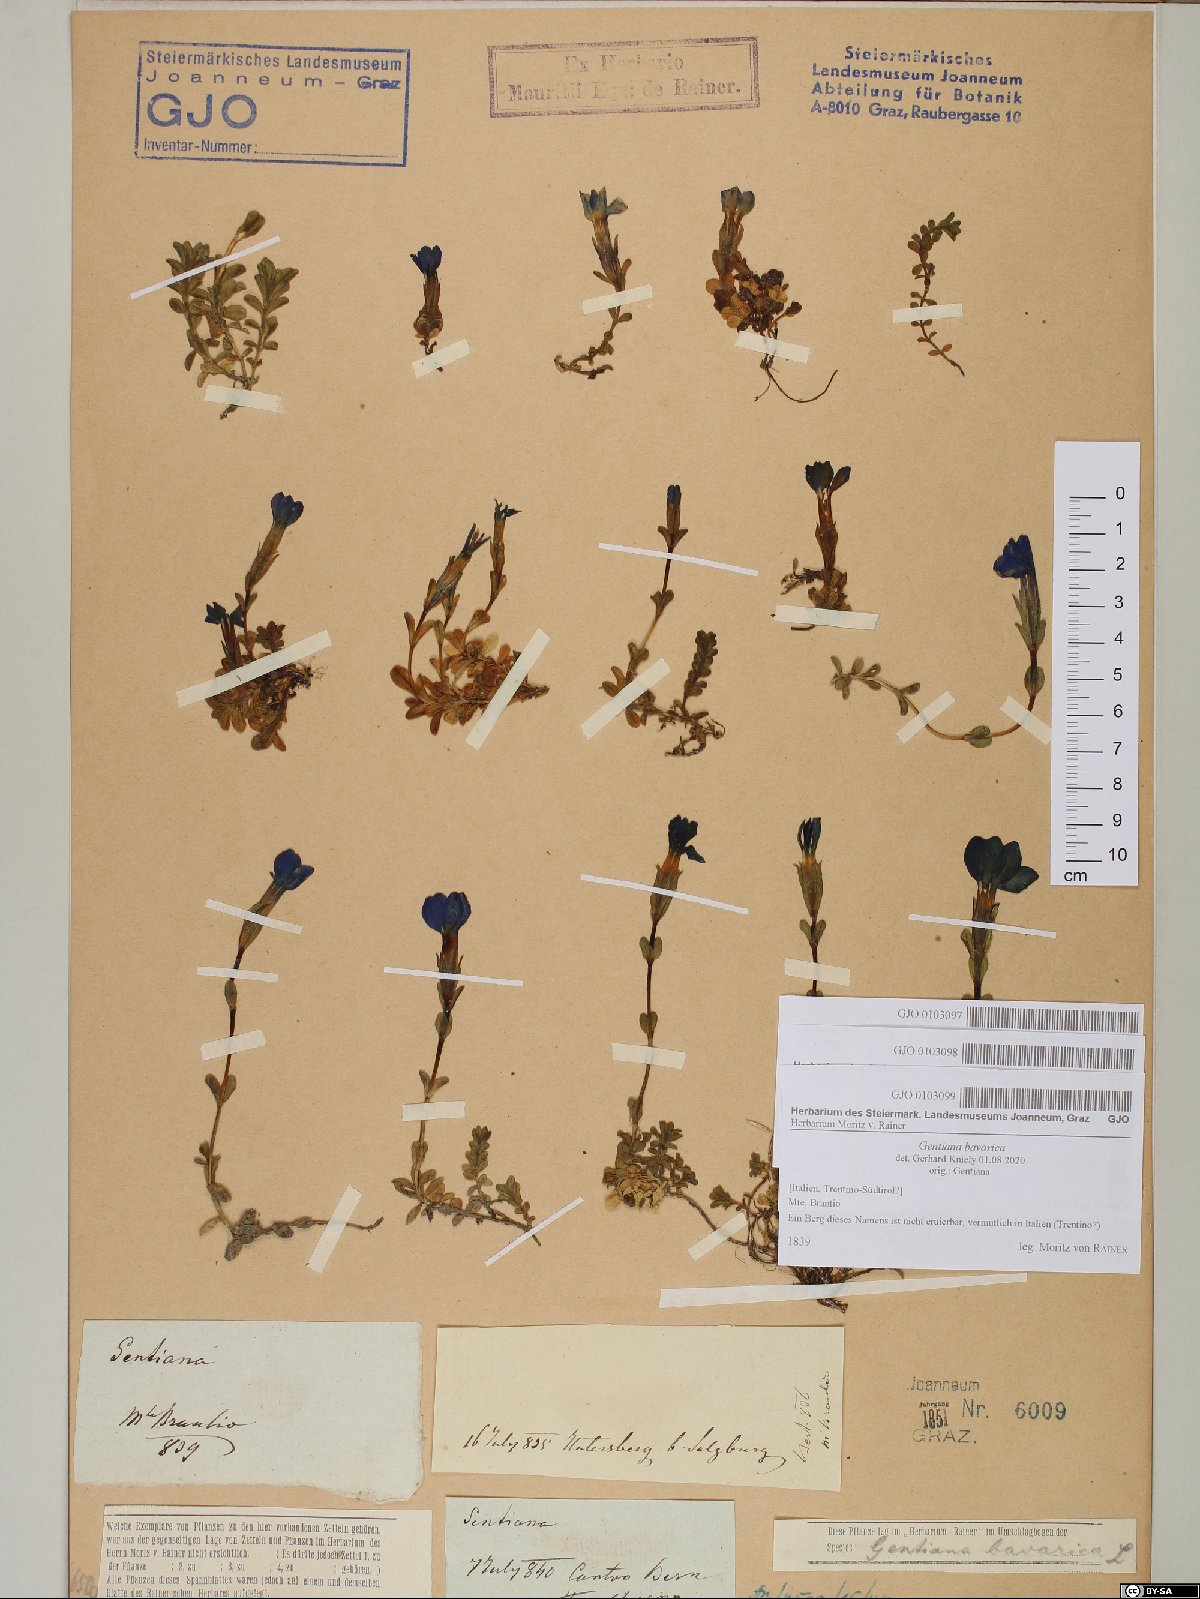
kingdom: Plantae
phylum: Tracheophyta
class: Magnoliopsida
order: Gentianales
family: Gentianaceae
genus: Gentiana
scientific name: Gentiana bavarica
